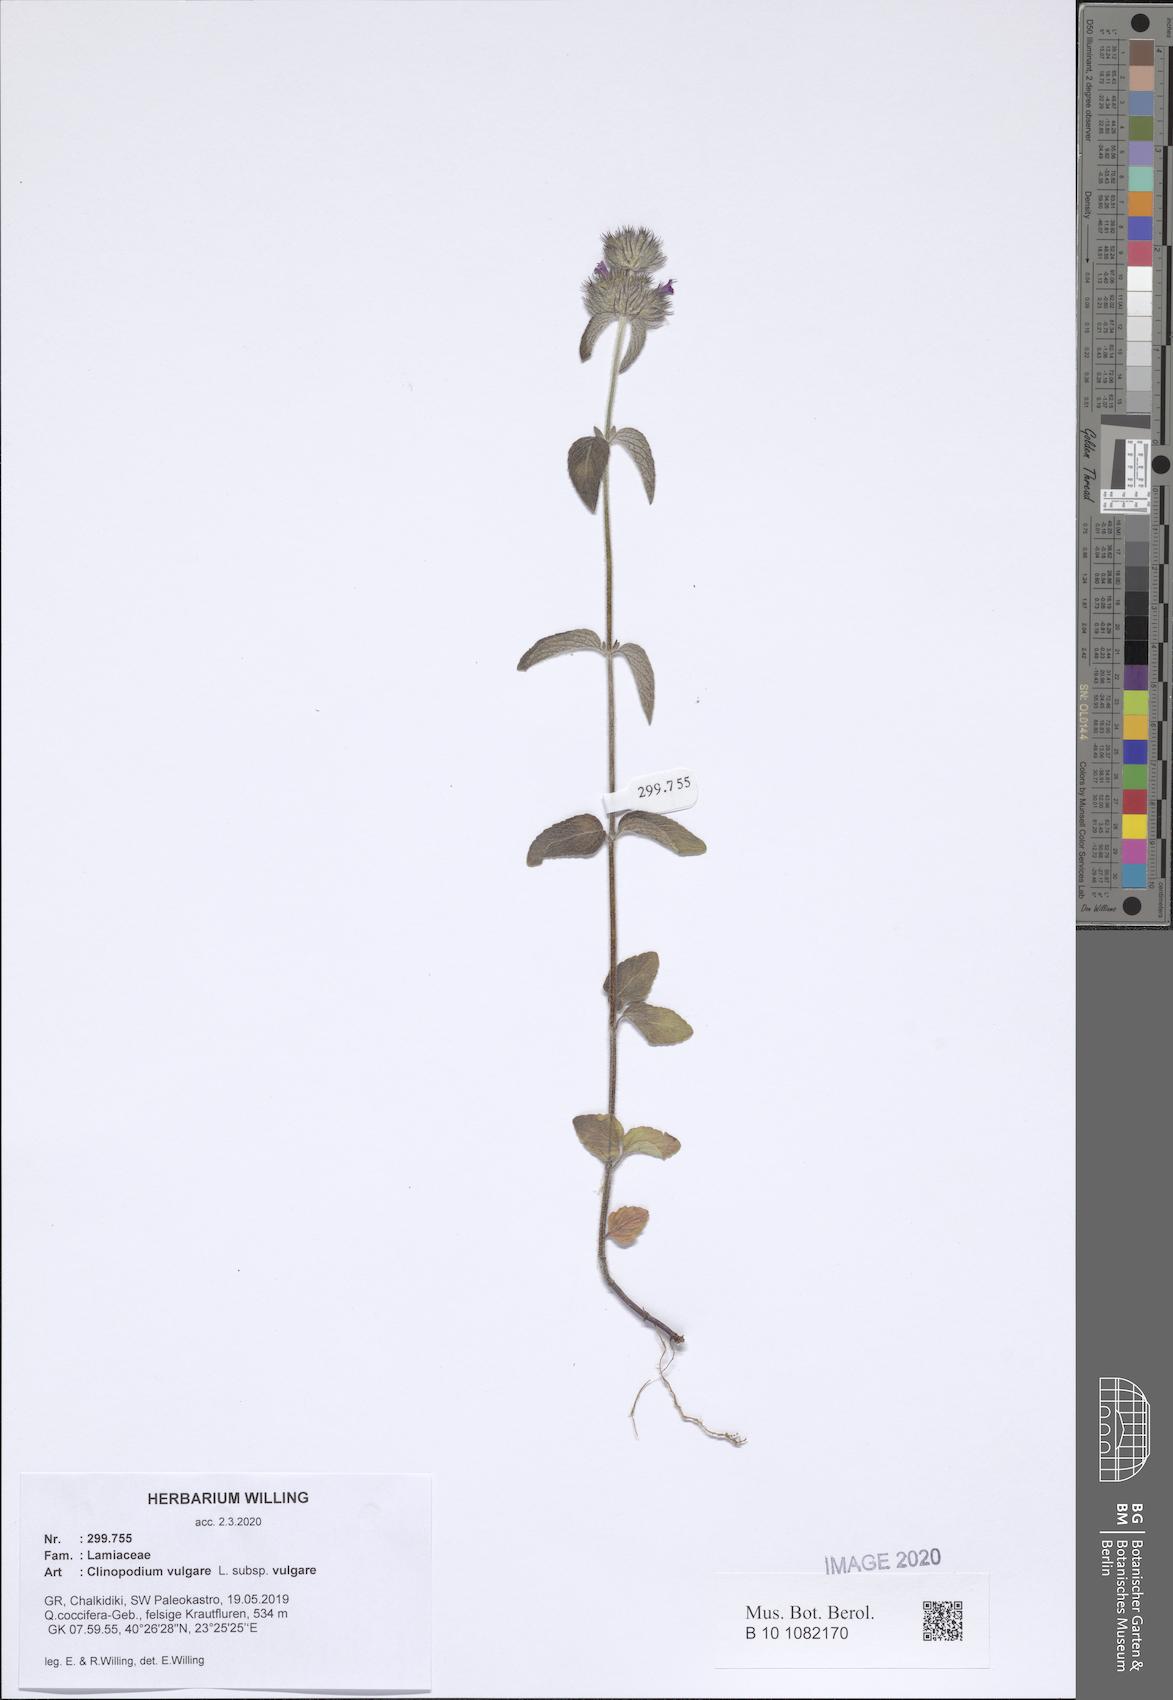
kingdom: Plantae
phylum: Tracheophyta
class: Magnoliopsida
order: Lamiales
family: Lamiaceae
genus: Clinopodium
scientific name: Clinopodium vulgare
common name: Wild basil
